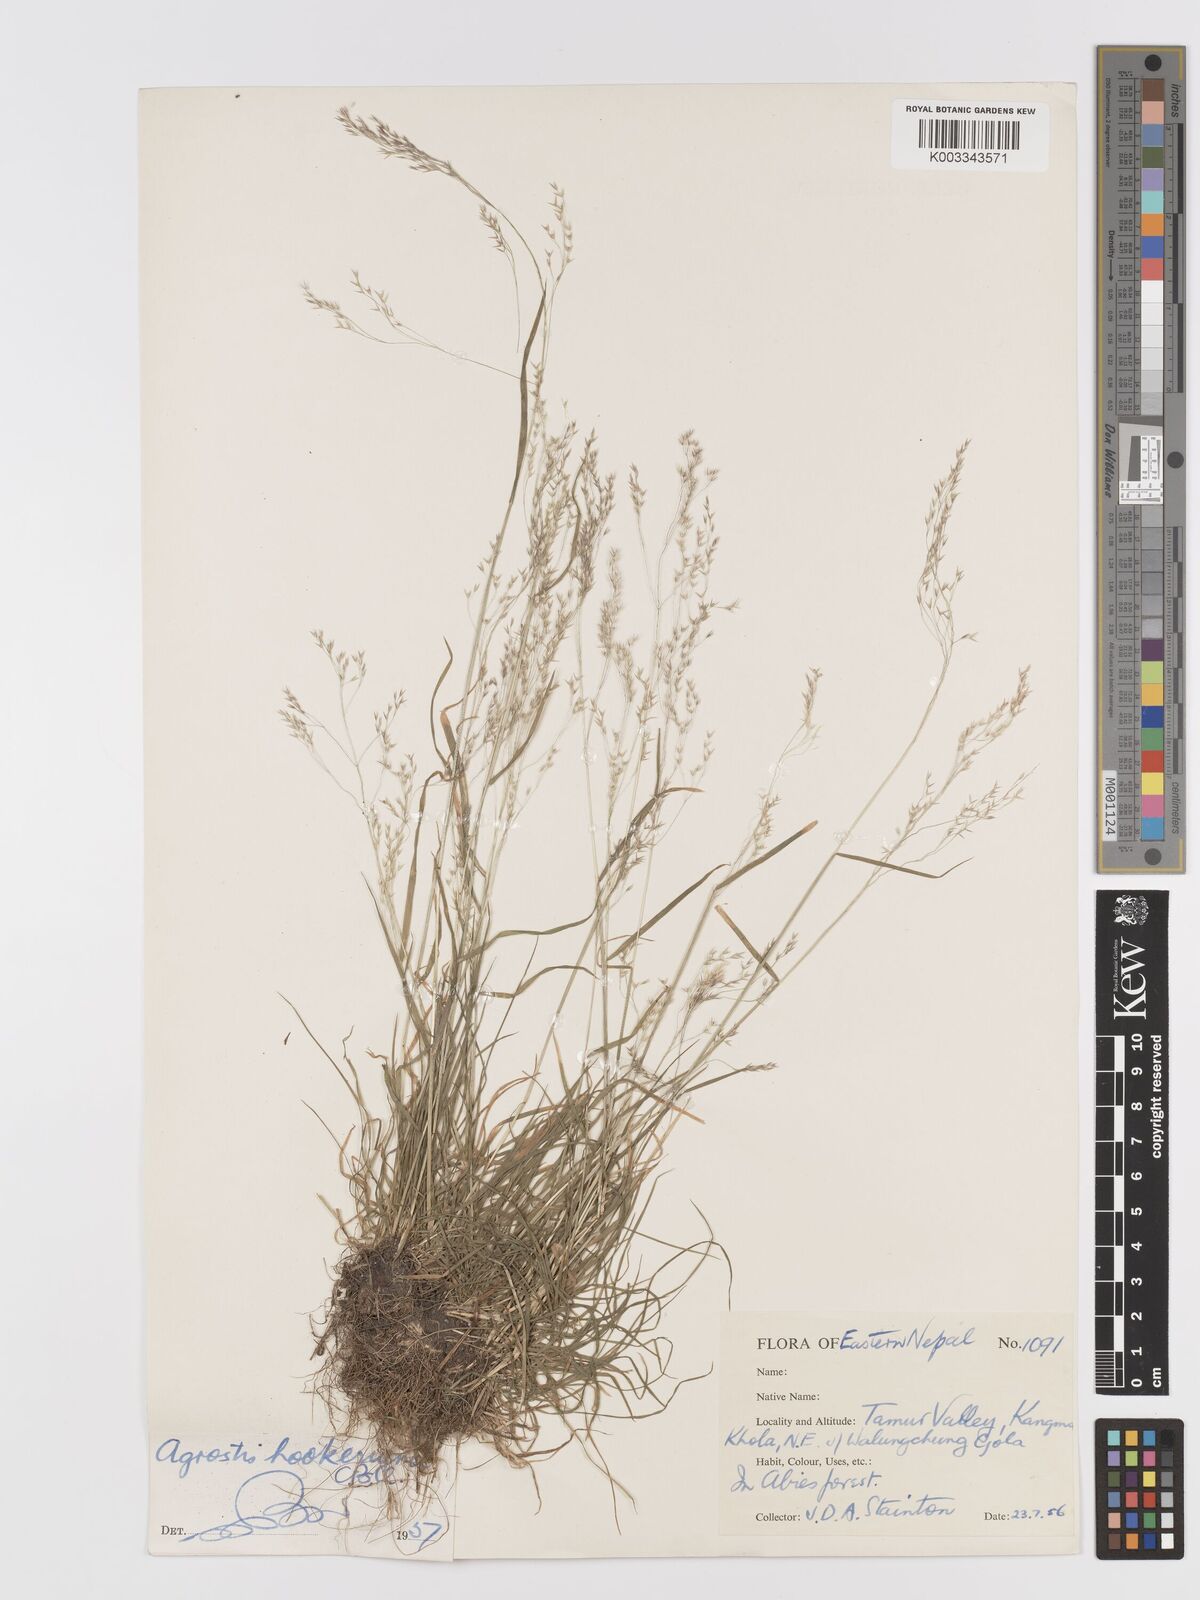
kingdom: Plantae
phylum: Tracheophyta
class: Liliopsida
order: Poales
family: Poaceae
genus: Agrostis
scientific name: Agrostis hookeriana
